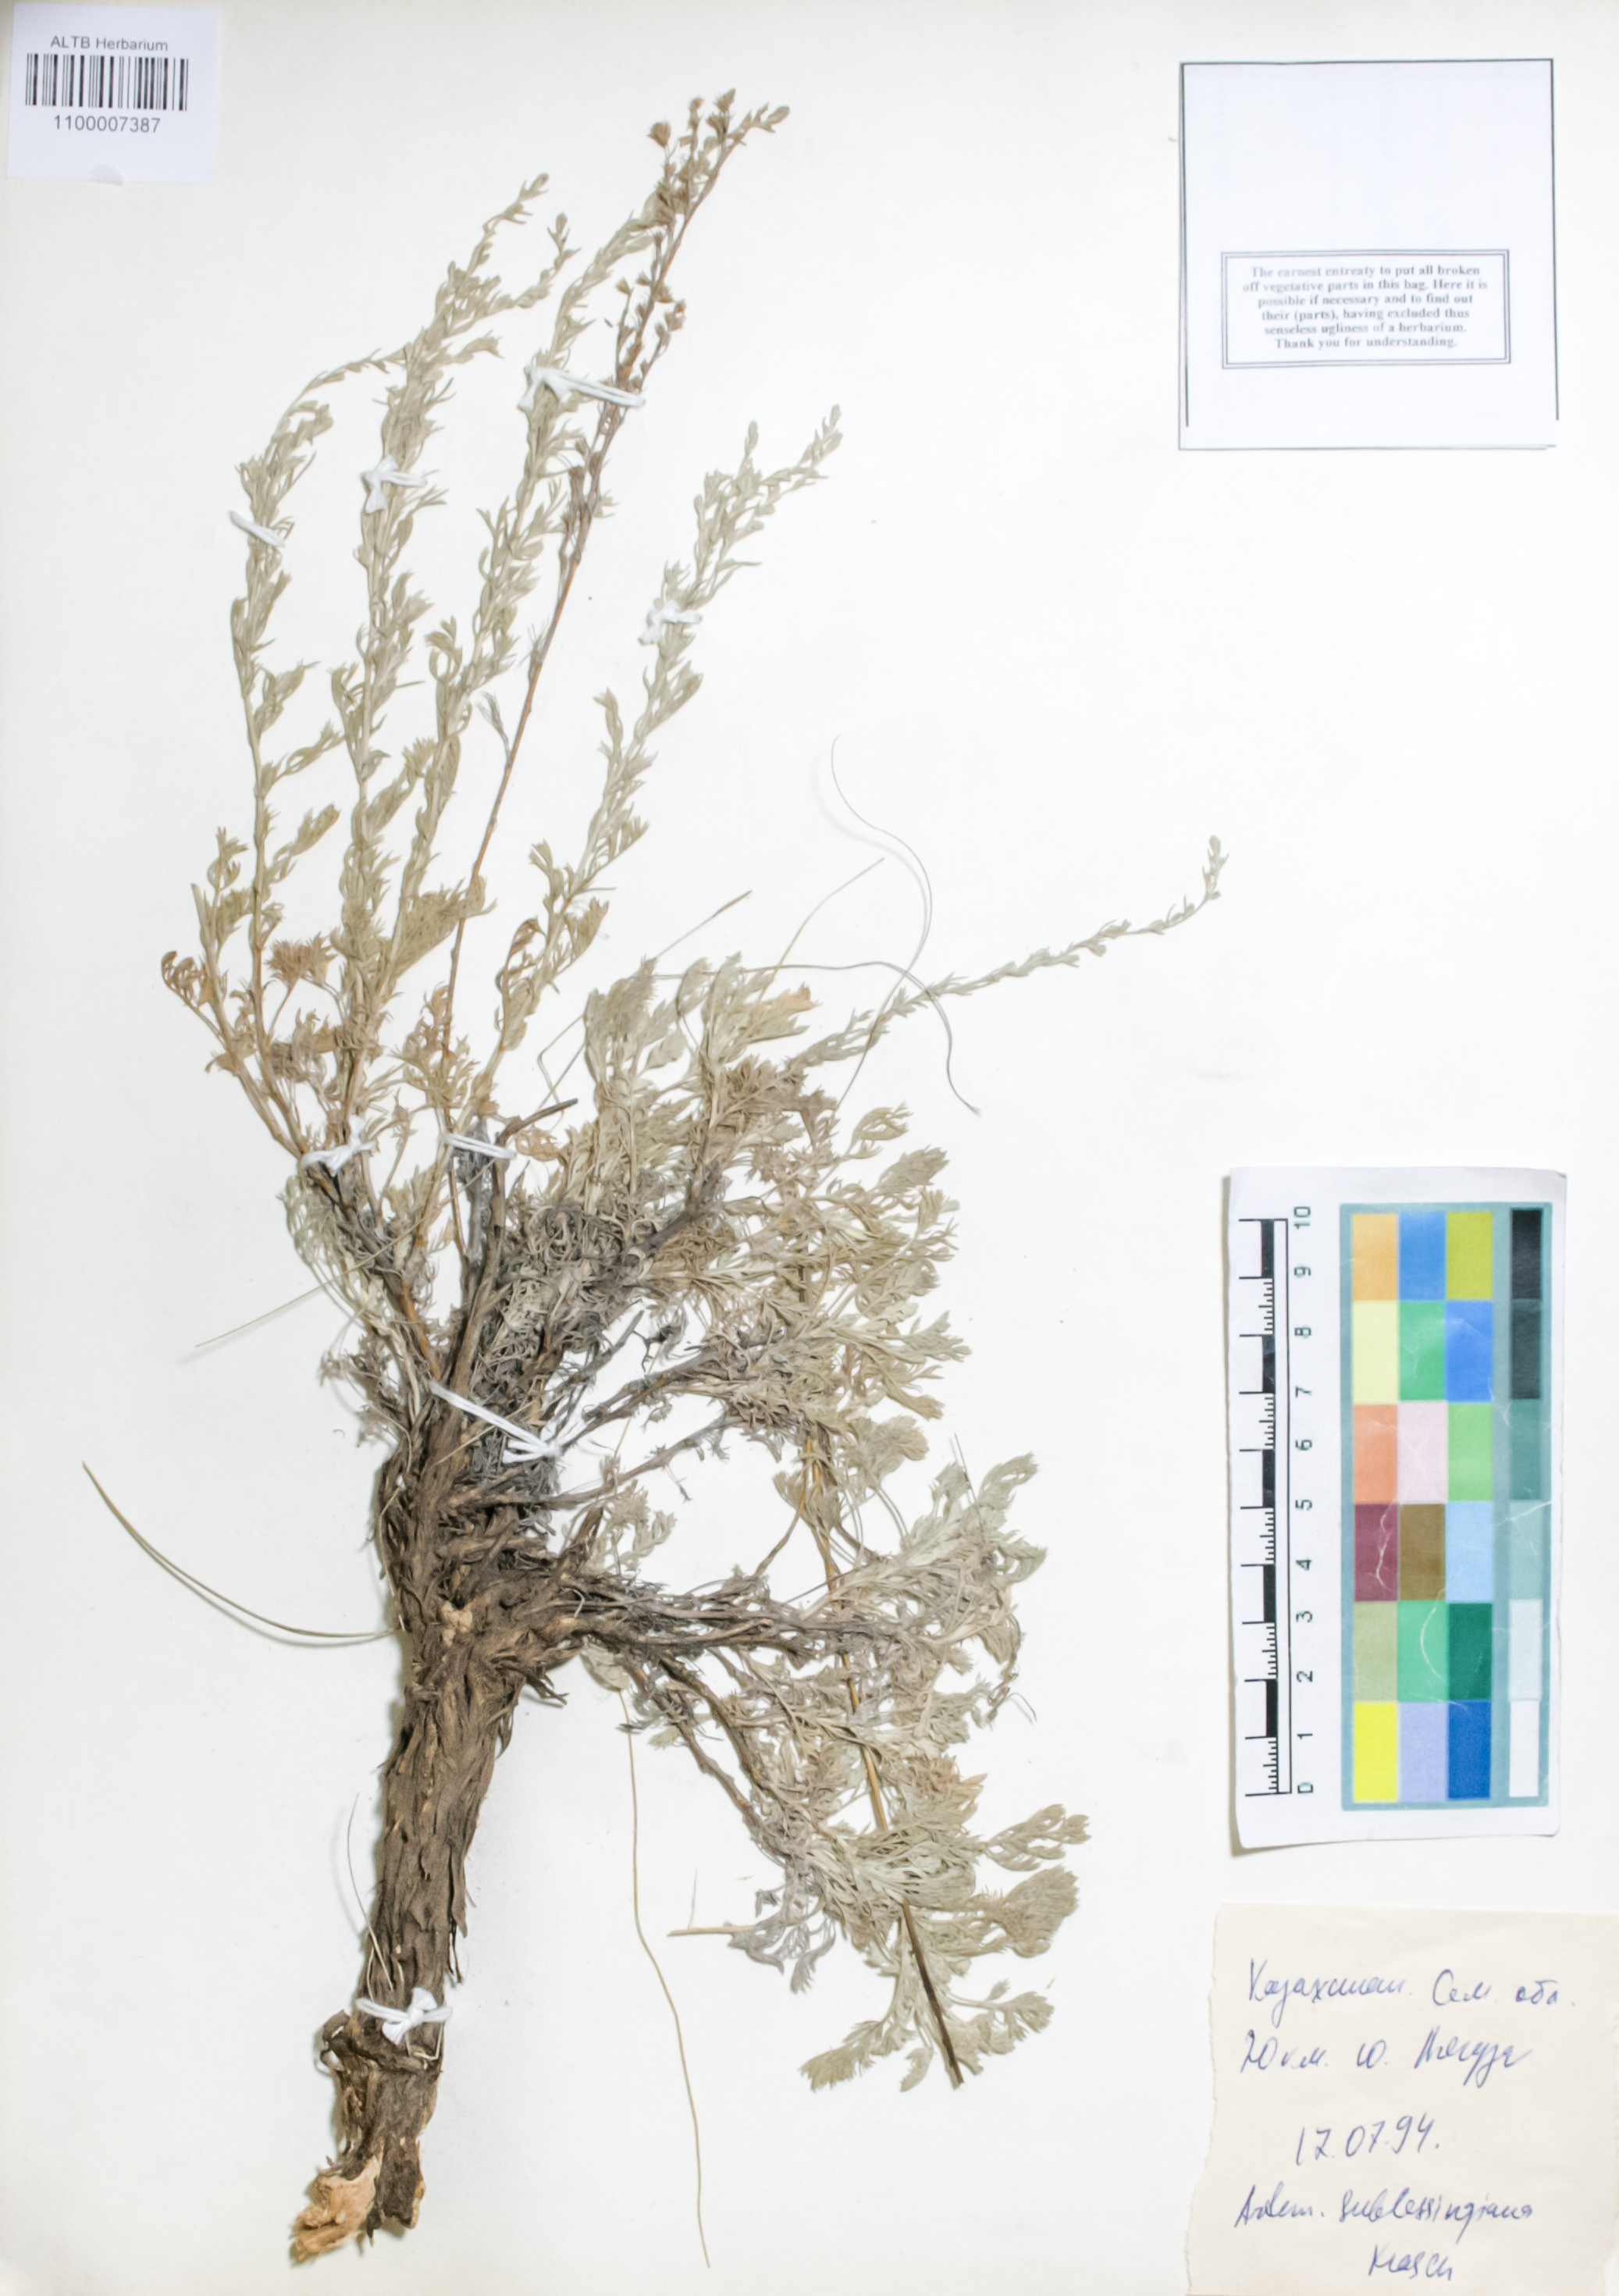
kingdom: Plantae
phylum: Tracheophyta
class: Magnoliopsida
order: Asterales
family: Asteraceae
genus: Artemisia
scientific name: Artemisia sublessingiana
